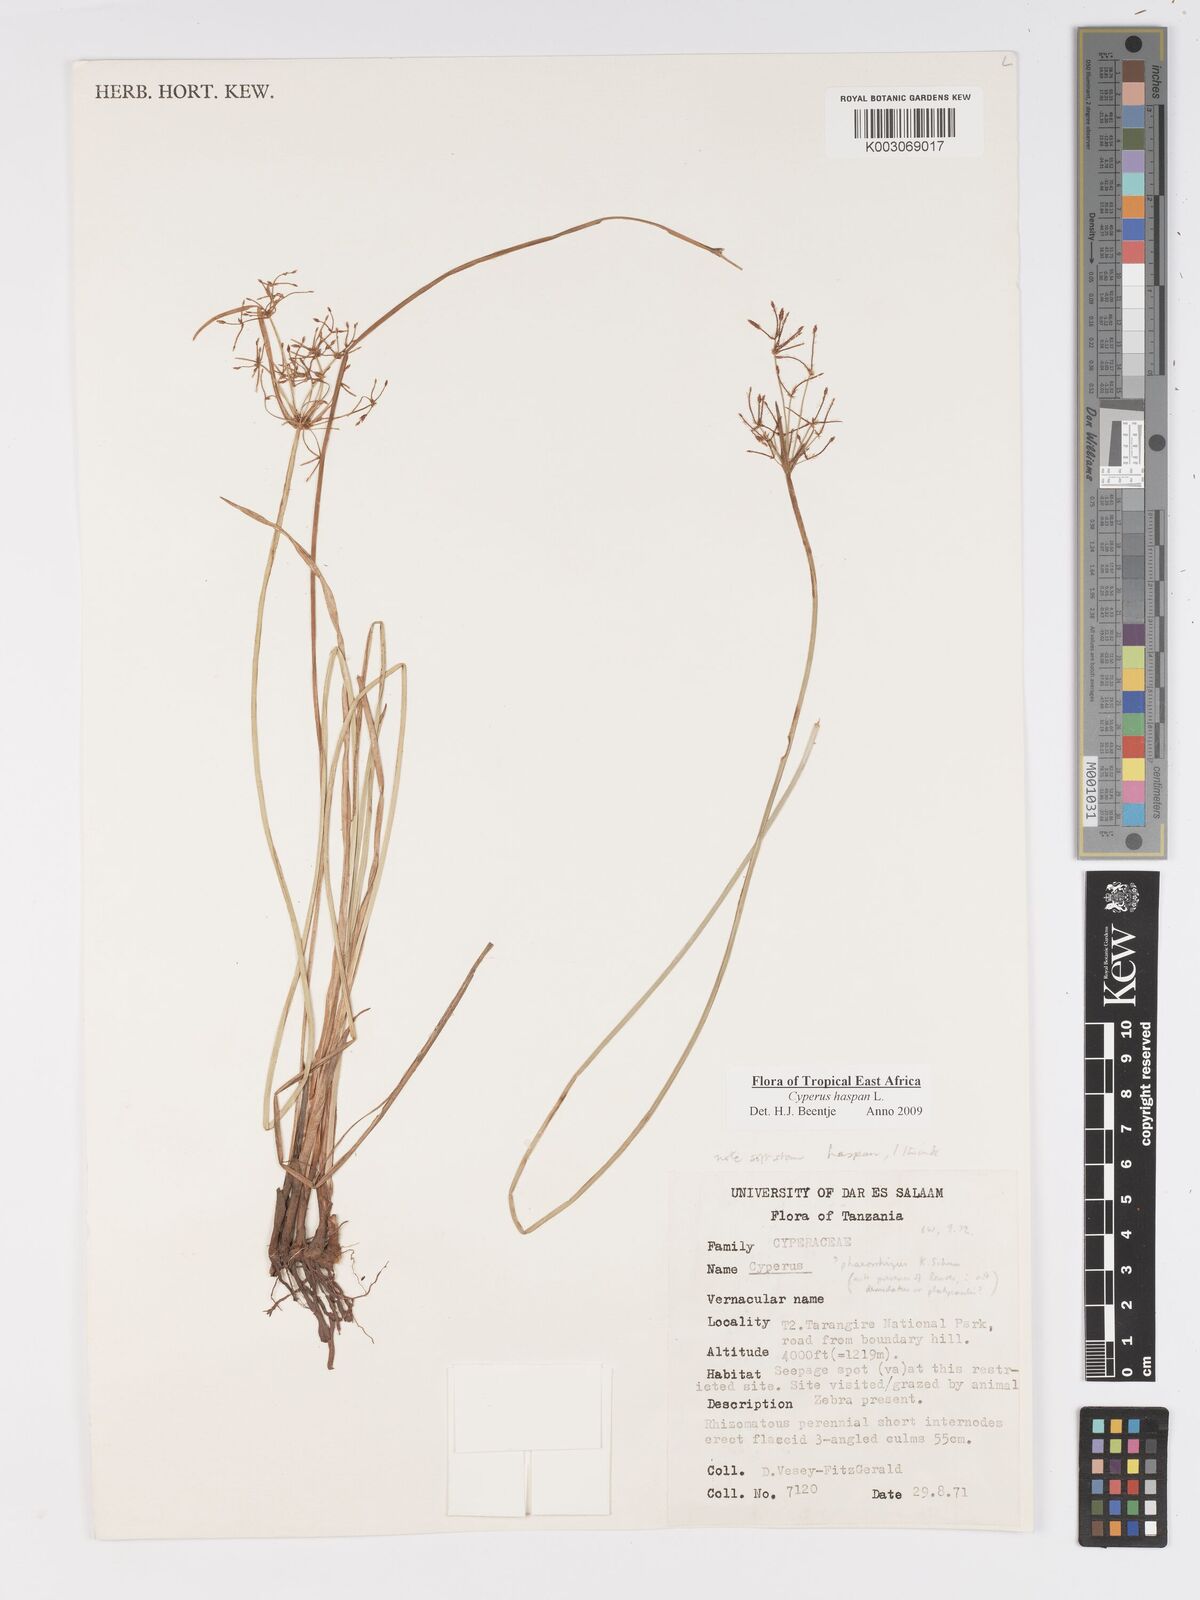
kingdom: Plantae
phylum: Tracheophyta
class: Liliopsida
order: Poales
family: Cyperaceae
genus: Cyperus
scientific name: Cyperus
